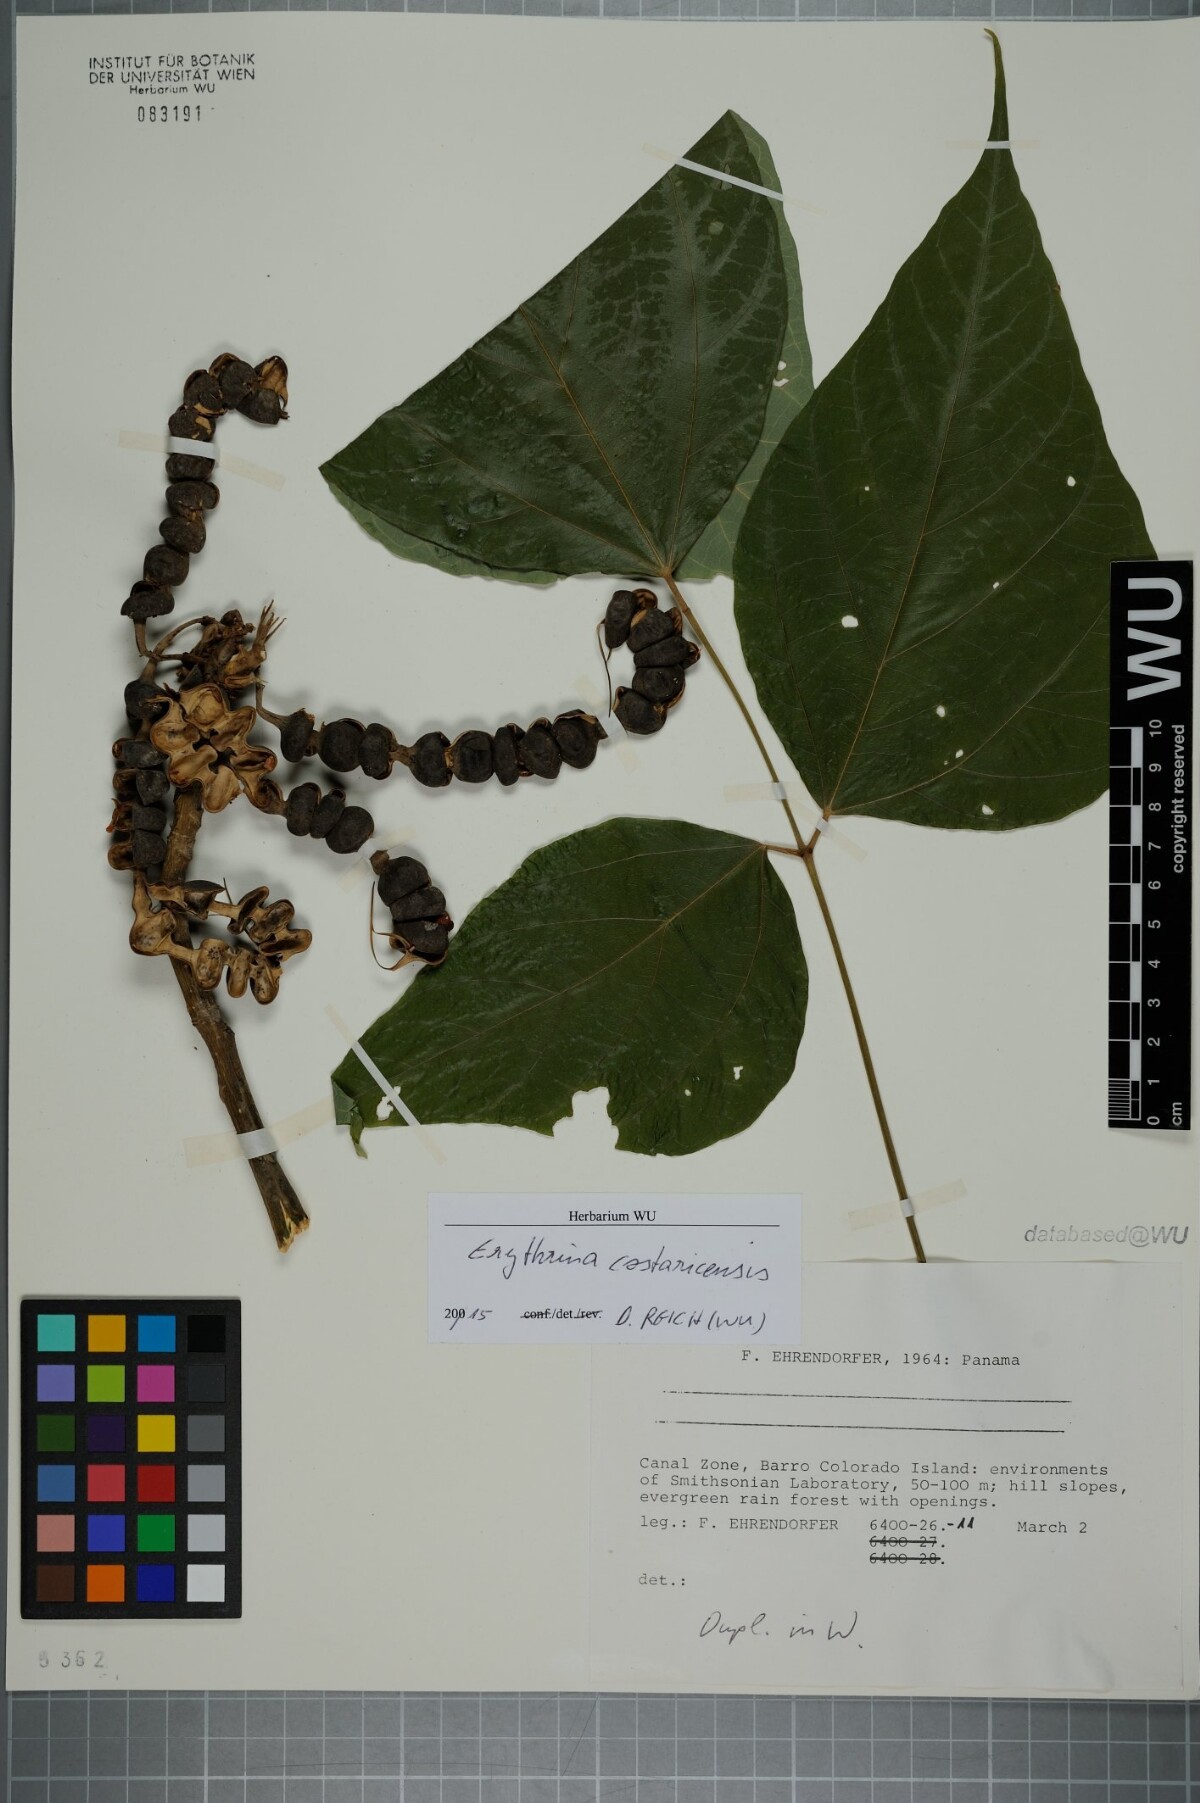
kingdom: Plantae
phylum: Tracheophyta
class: Magnoliopsida
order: Fabales
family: Fabaceae
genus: Erythrina
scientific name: Erythrina costaricensis
